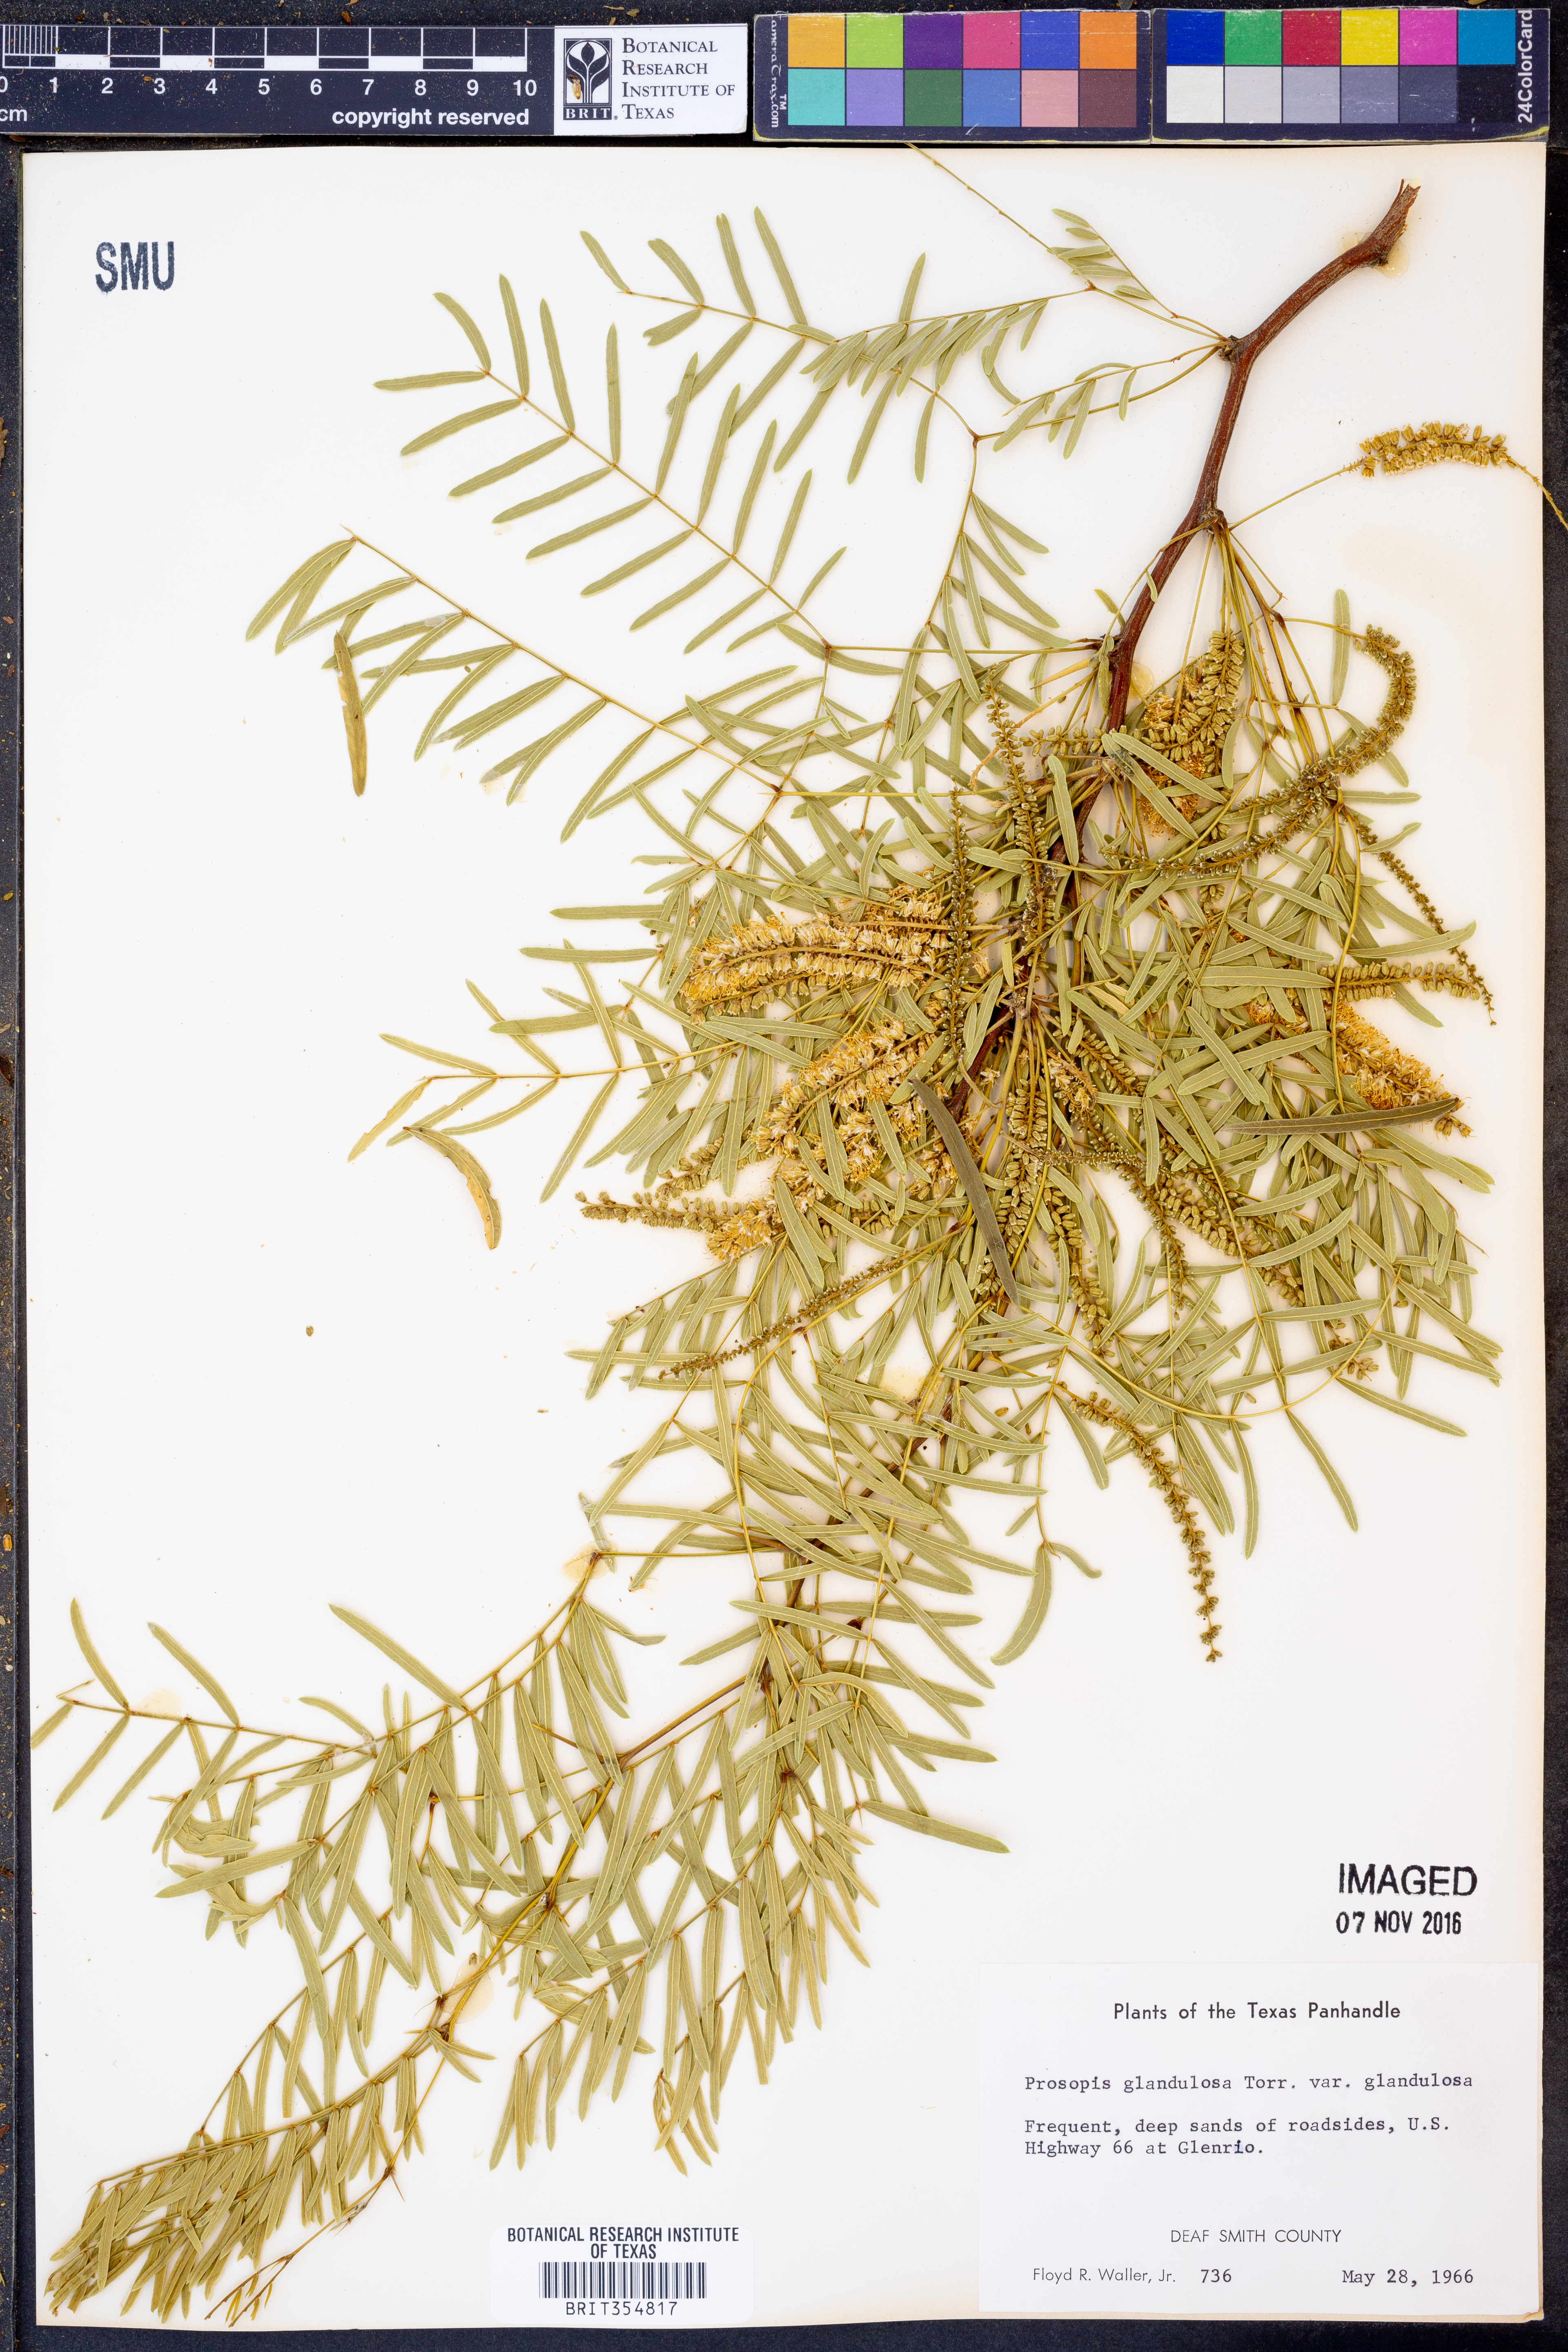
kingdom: Plantae
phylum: Tracheophyta
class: Magnoliopsida
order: Fabales
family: Fabaceae
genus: Prosopis
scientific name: Prosopis glandulosa
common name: Honey mesquite
